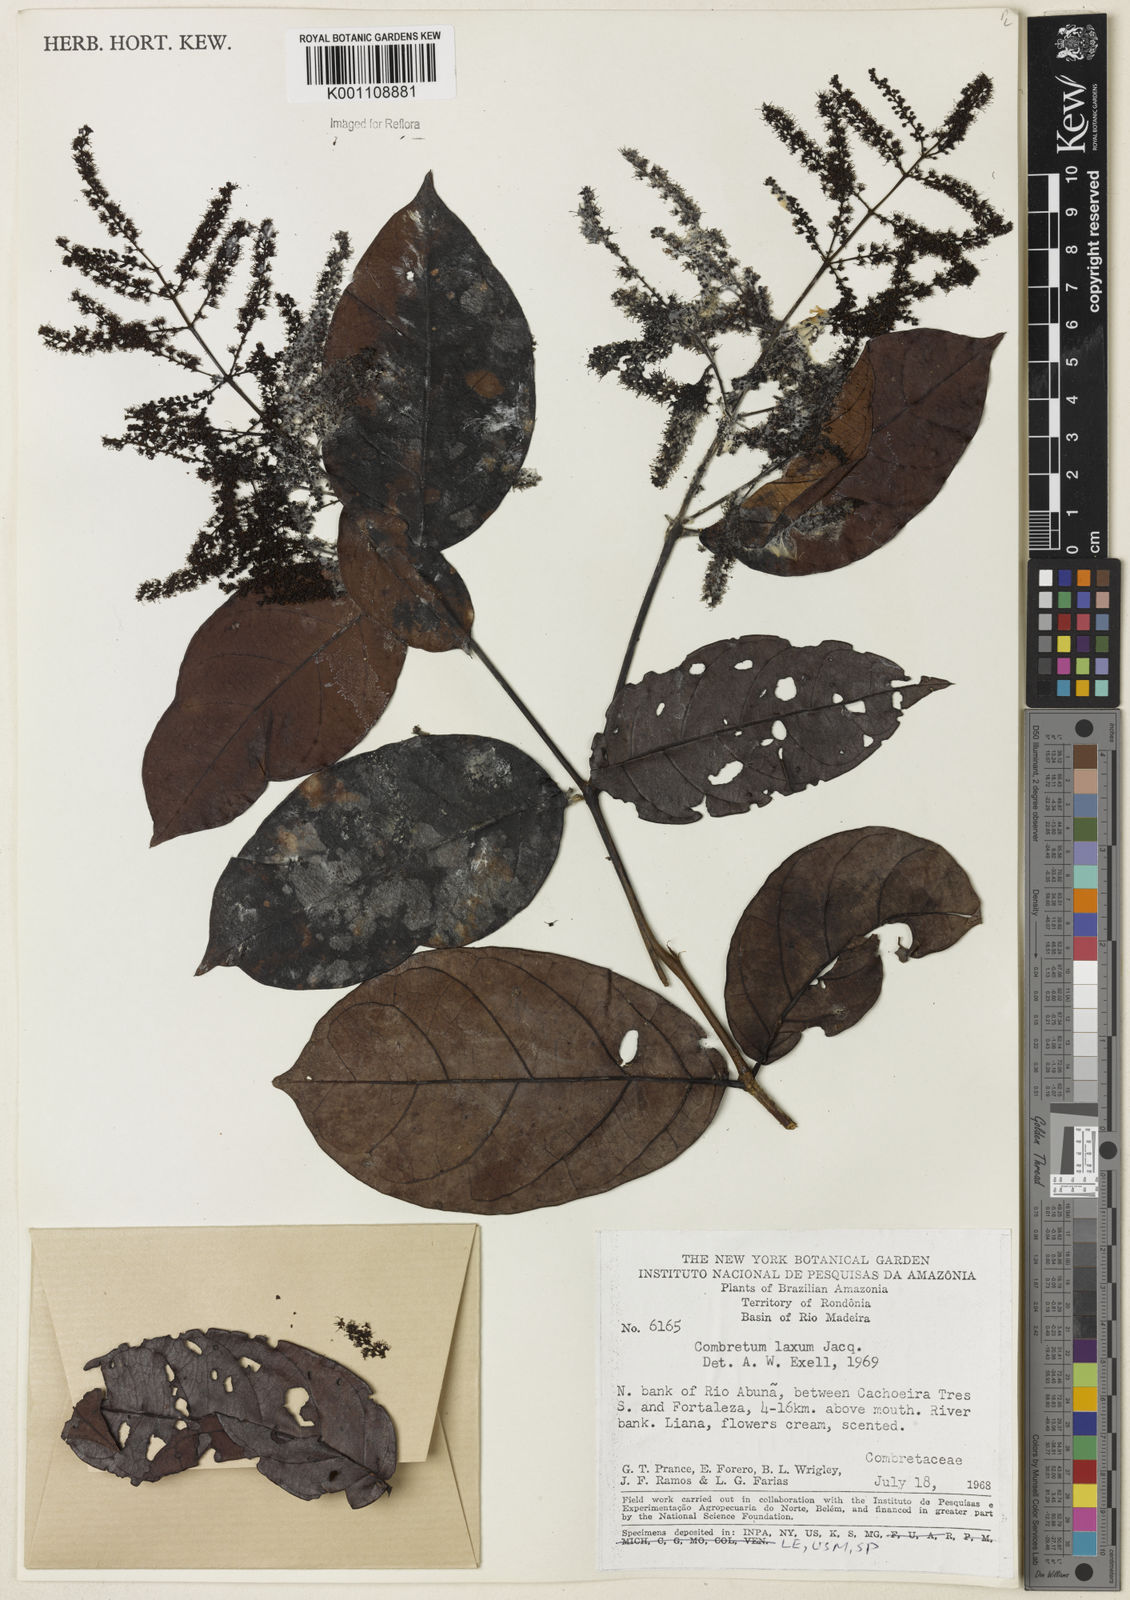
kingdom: Plantae
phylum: Tracheophyta
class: Magnoliopsida
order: Myrtales
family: Combretaceae
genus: Combretum
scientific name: Combretum laxum
